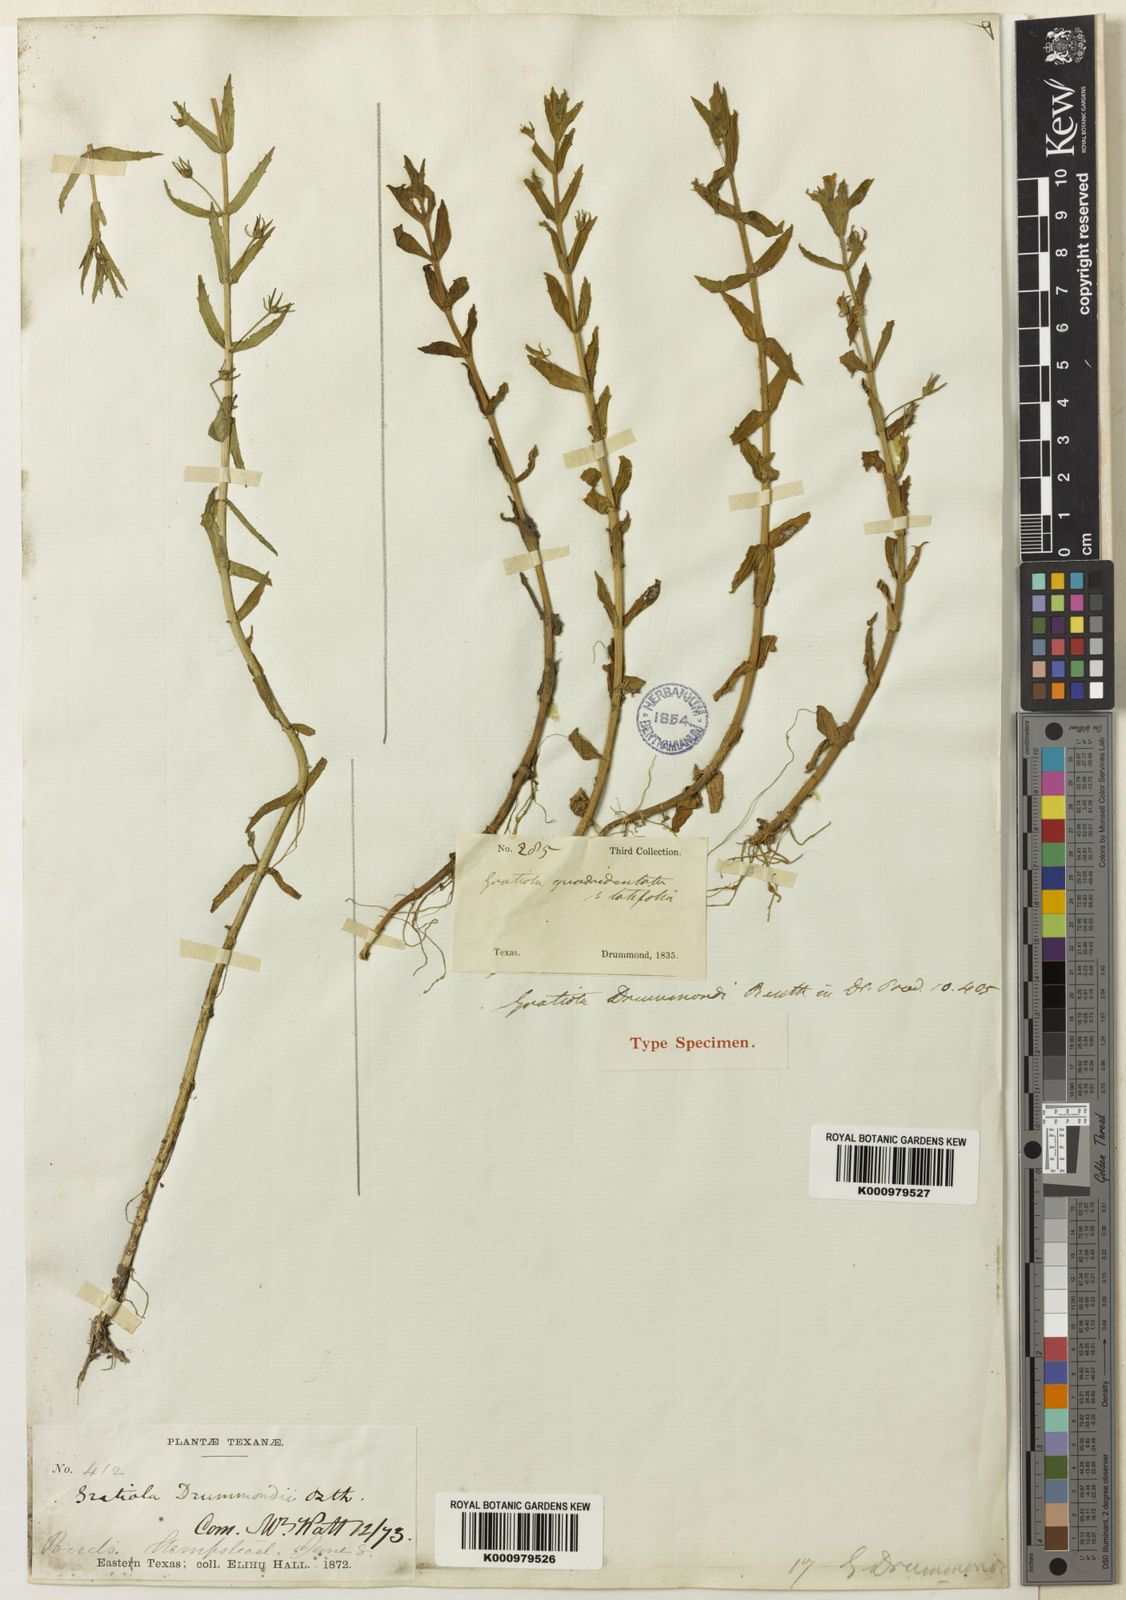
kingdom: Plantae
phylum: Tracheophyta
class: Magnoliopsida
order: Lamiales
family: Plantaginaceae
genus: Gratiola
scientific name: Gratiola ramosa
